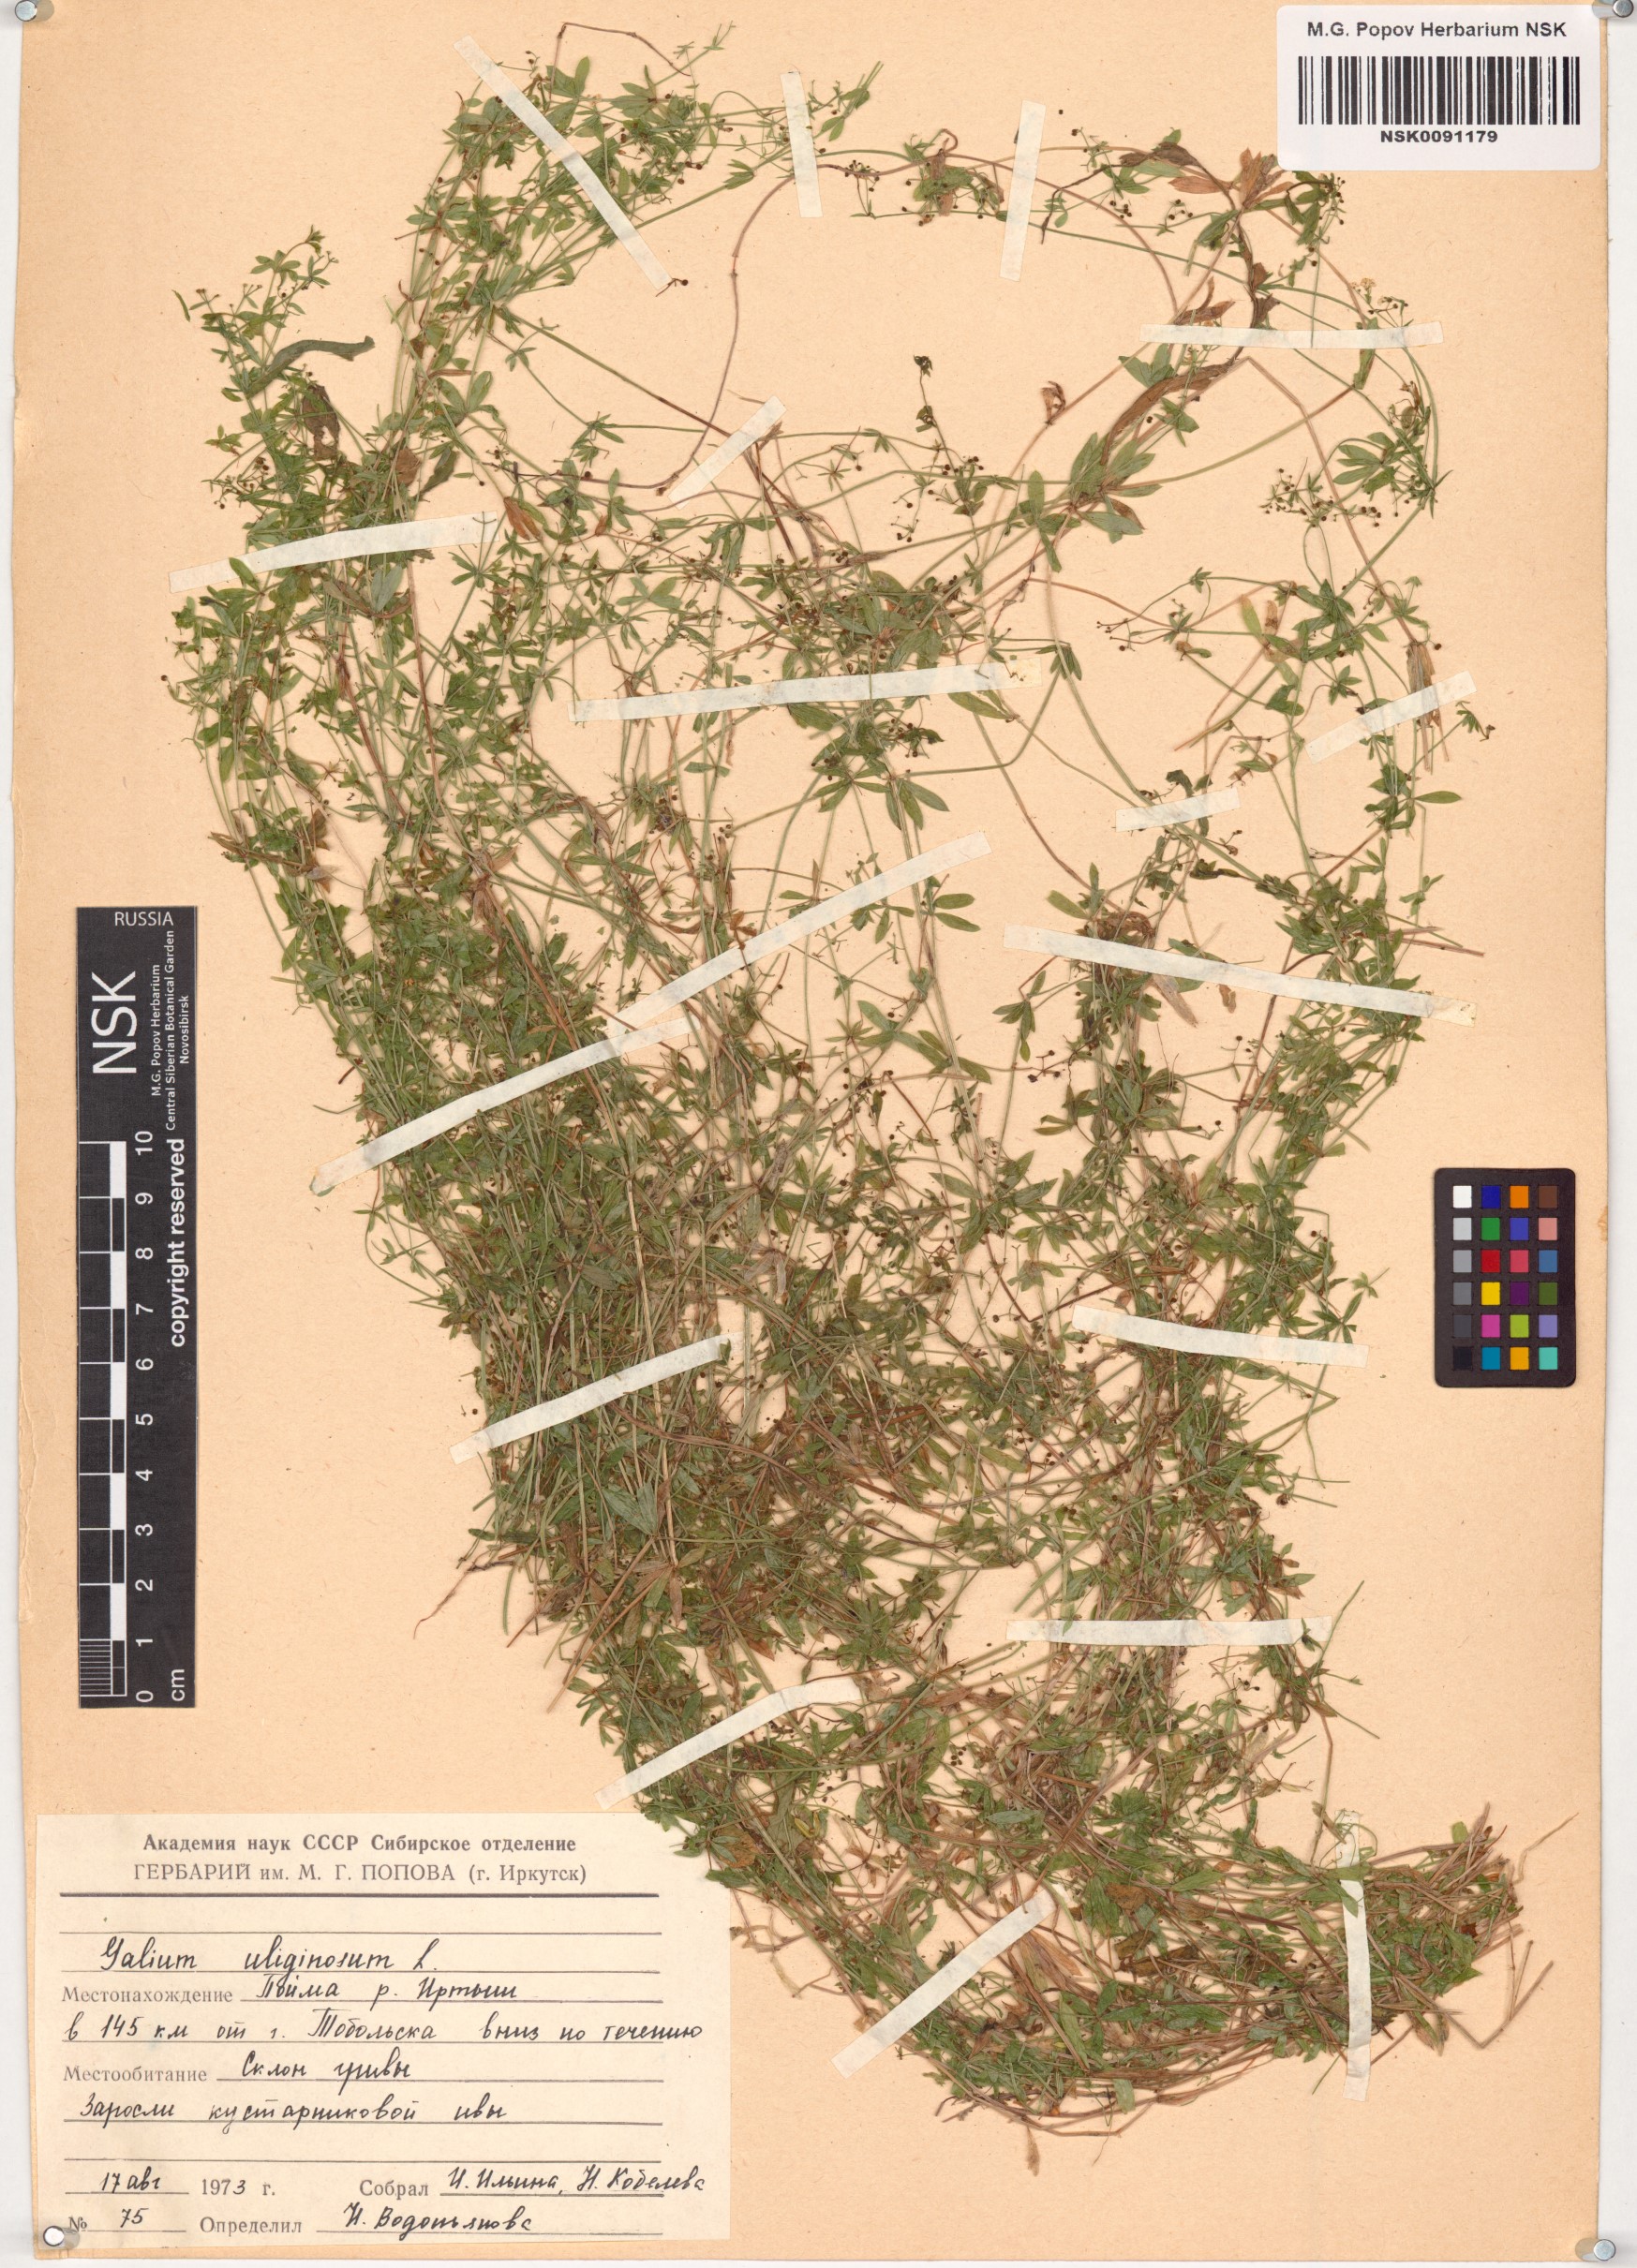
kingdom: Plantae
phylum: Tracheophyta
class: Magnoliopsida
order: Gentianales
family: Rubiaceae
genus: Galium
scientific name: Galium uliginosum
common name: Fen bedstraw
